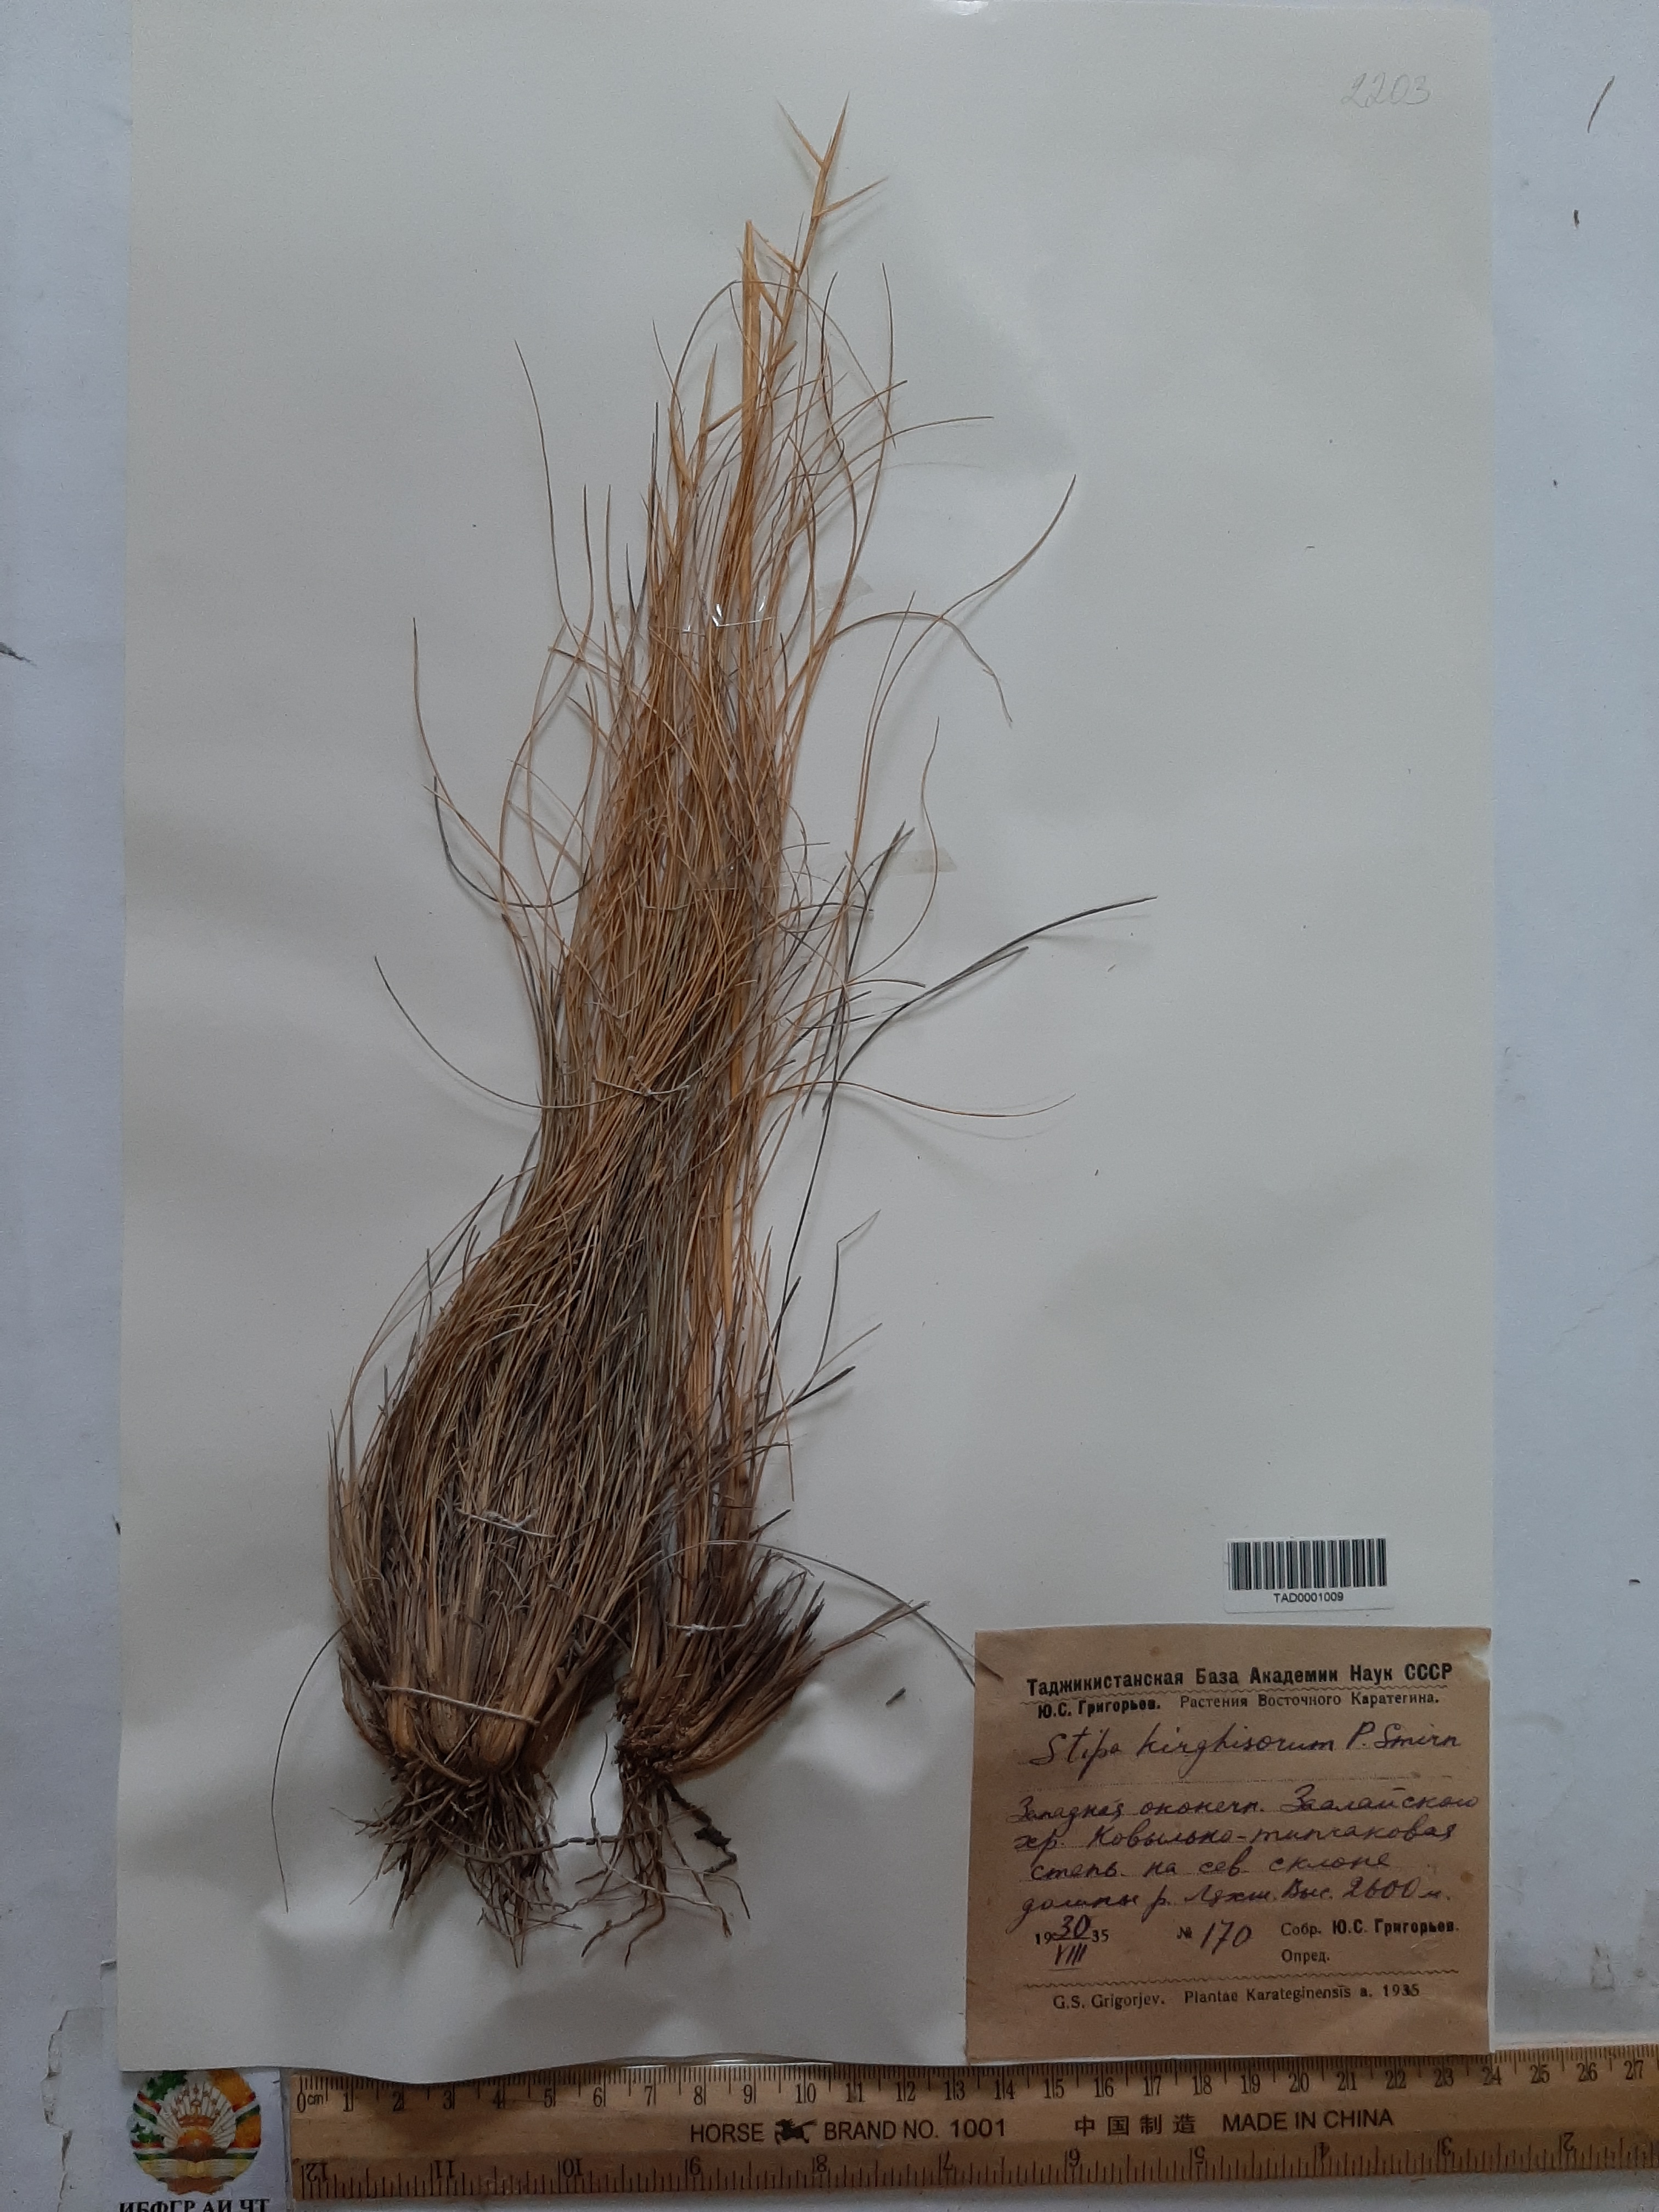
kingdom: Plantae
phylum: Tracheophyta
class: Liliopsida
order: Poales
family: Poaceae
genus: Stipa
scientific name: Stipa kirghisorum
